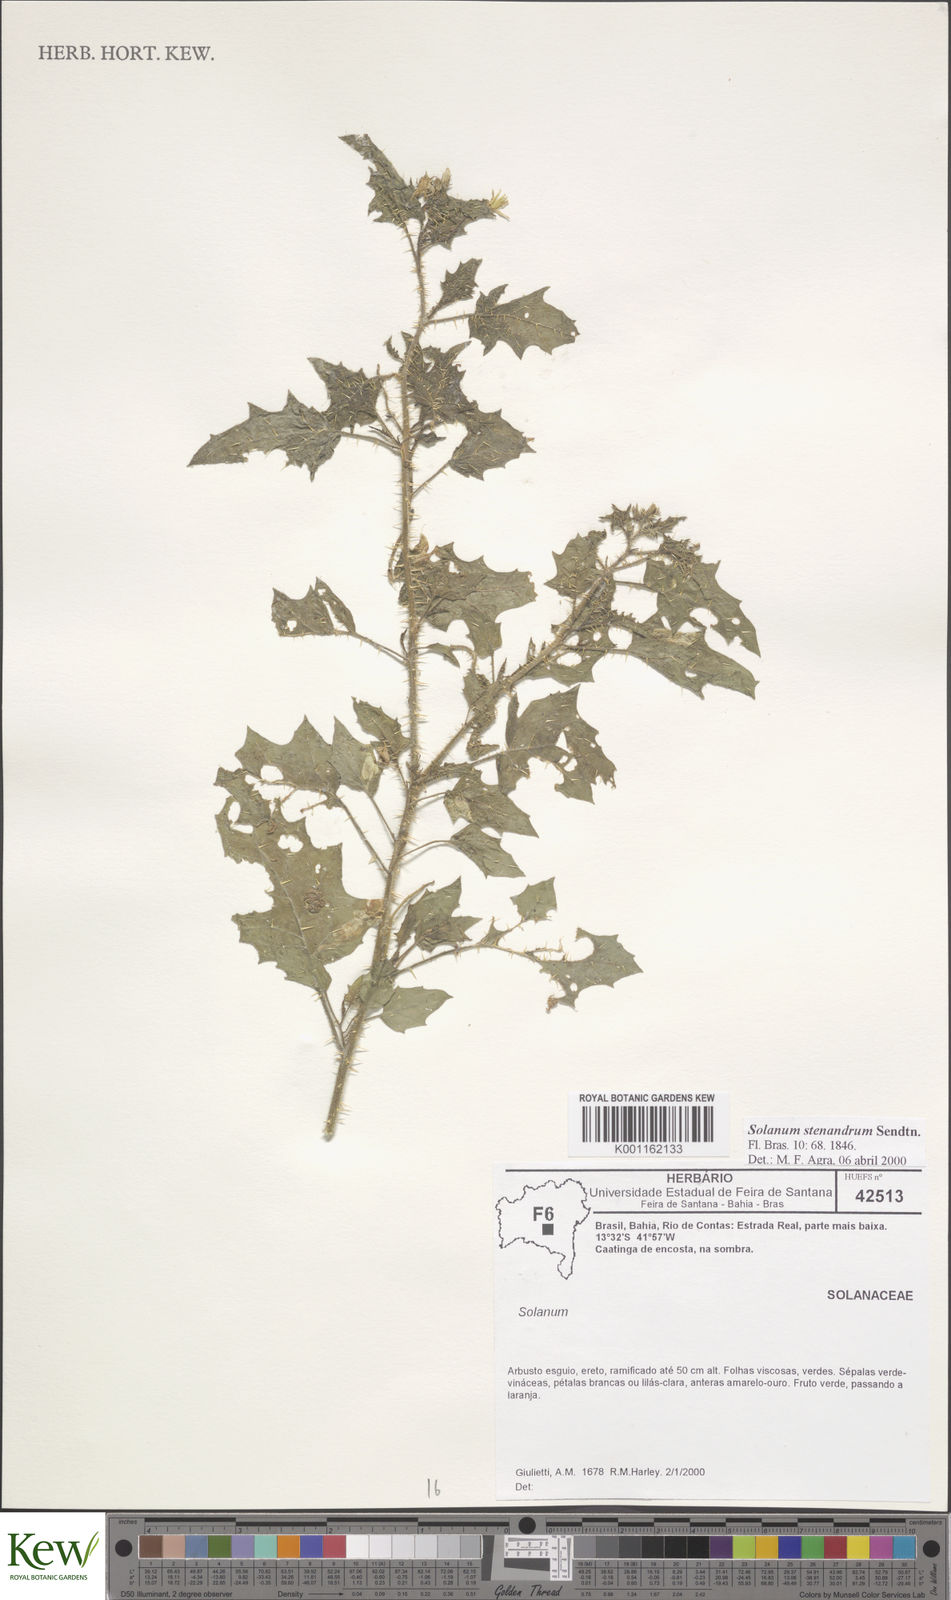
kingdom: Plantae
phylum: Tracheophyta
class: Magnoliopsida
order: Solanales
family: Solanaceae
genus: Solanum
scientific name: Solanum stenandrum
